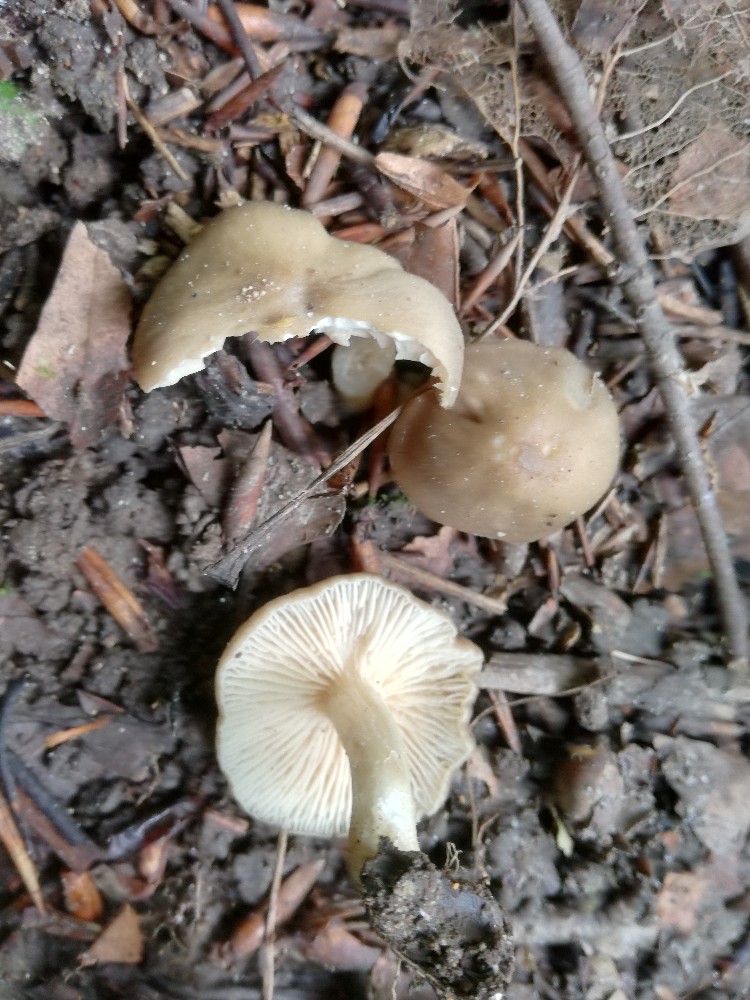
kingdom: Fungi
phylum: Basidiomycota
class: Agaricomycetes
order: Agaricales
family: Entolomataceae
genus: Entoloma
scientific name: Entoloma sordidulum
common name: smudsig rødblad
